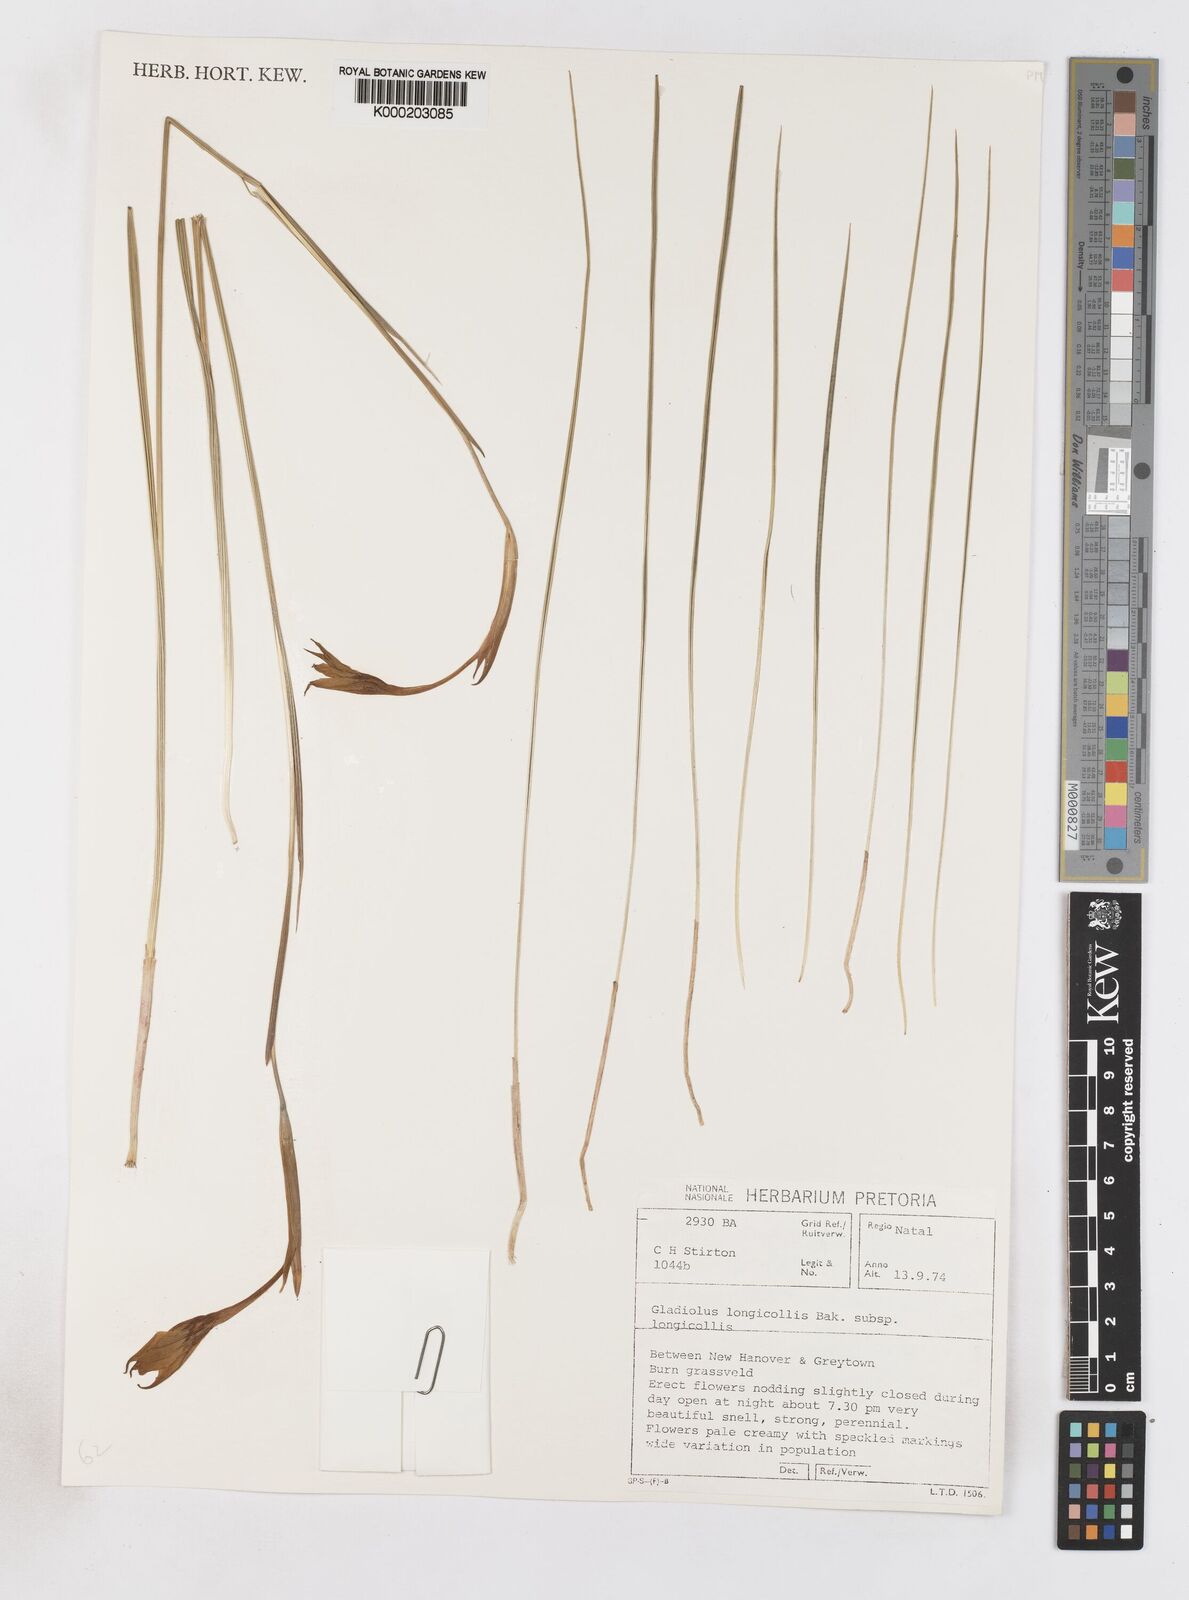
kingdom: Plantae
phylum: Tracheophyta
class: Liliopsida
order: Asparagales
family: Iridaceae
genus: Gladiolus
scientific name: Gladiolus longicollis
